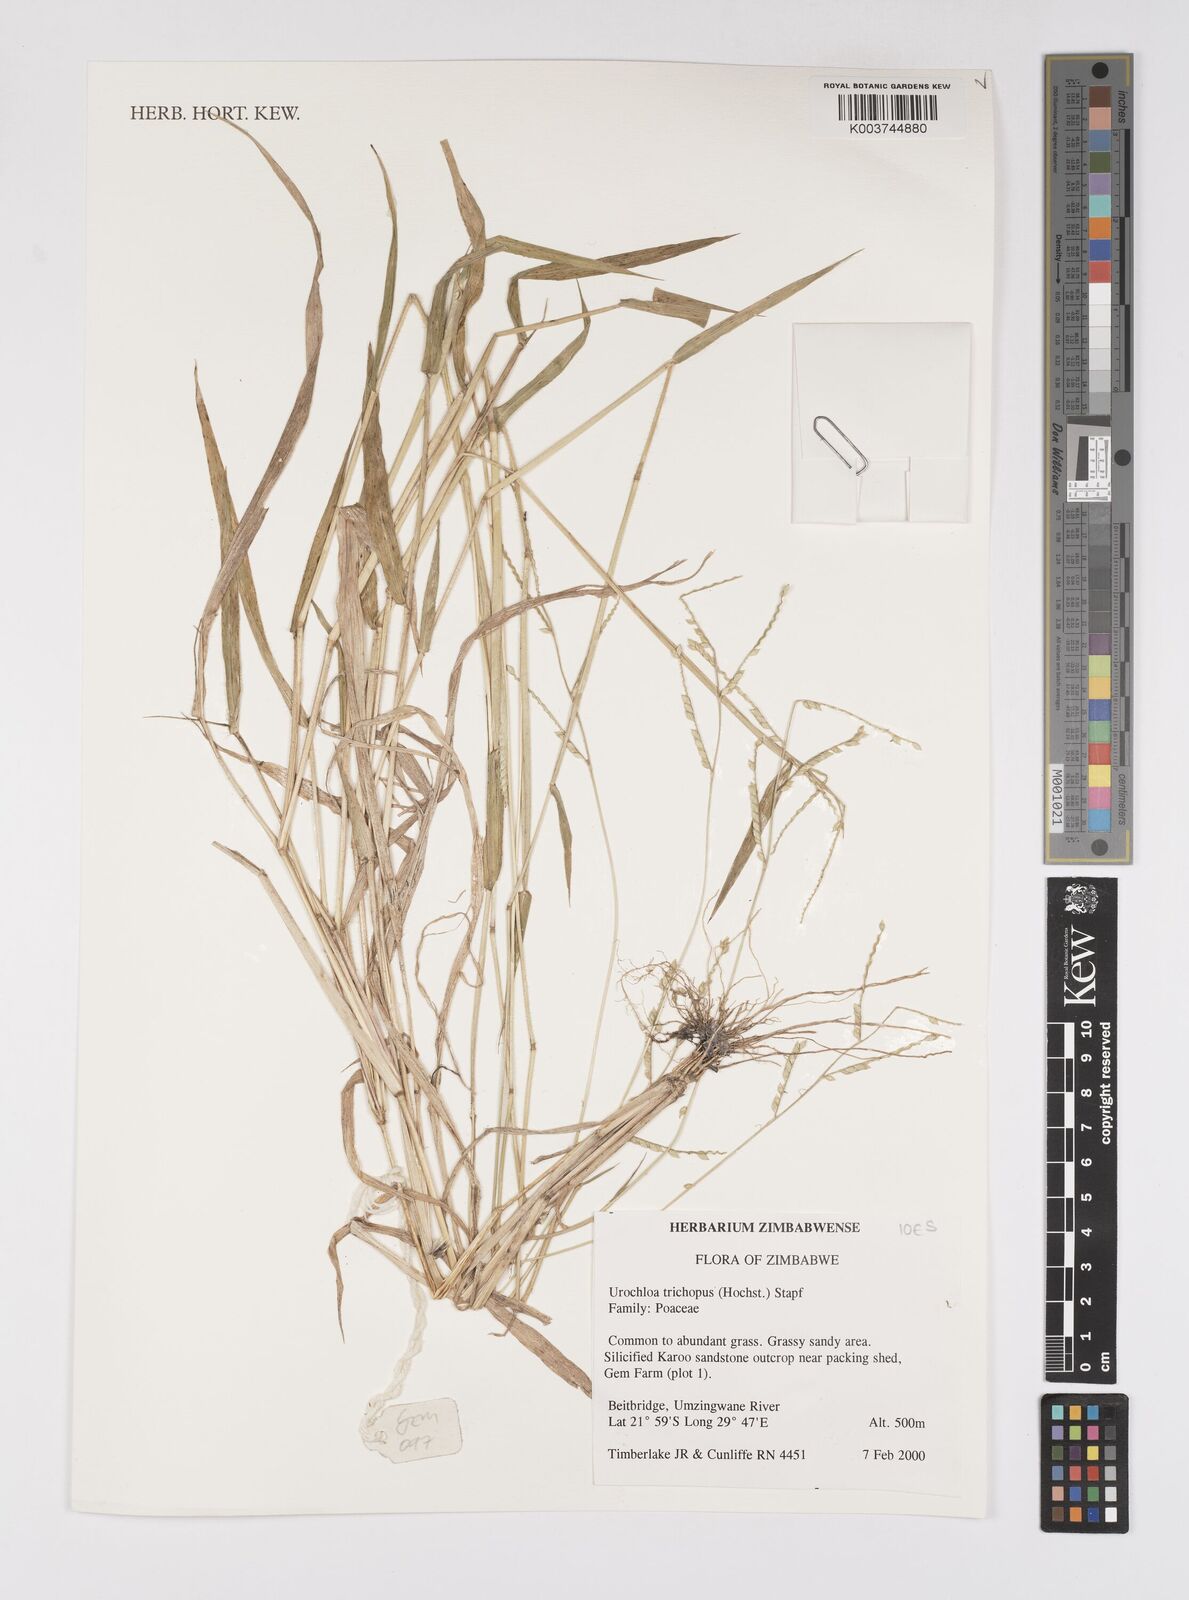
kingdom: Plantae
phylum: Tracheophyta
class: Liliopsida
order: Poales
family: Poaceae
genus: Urochloa
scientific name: Urochloa trichopus
